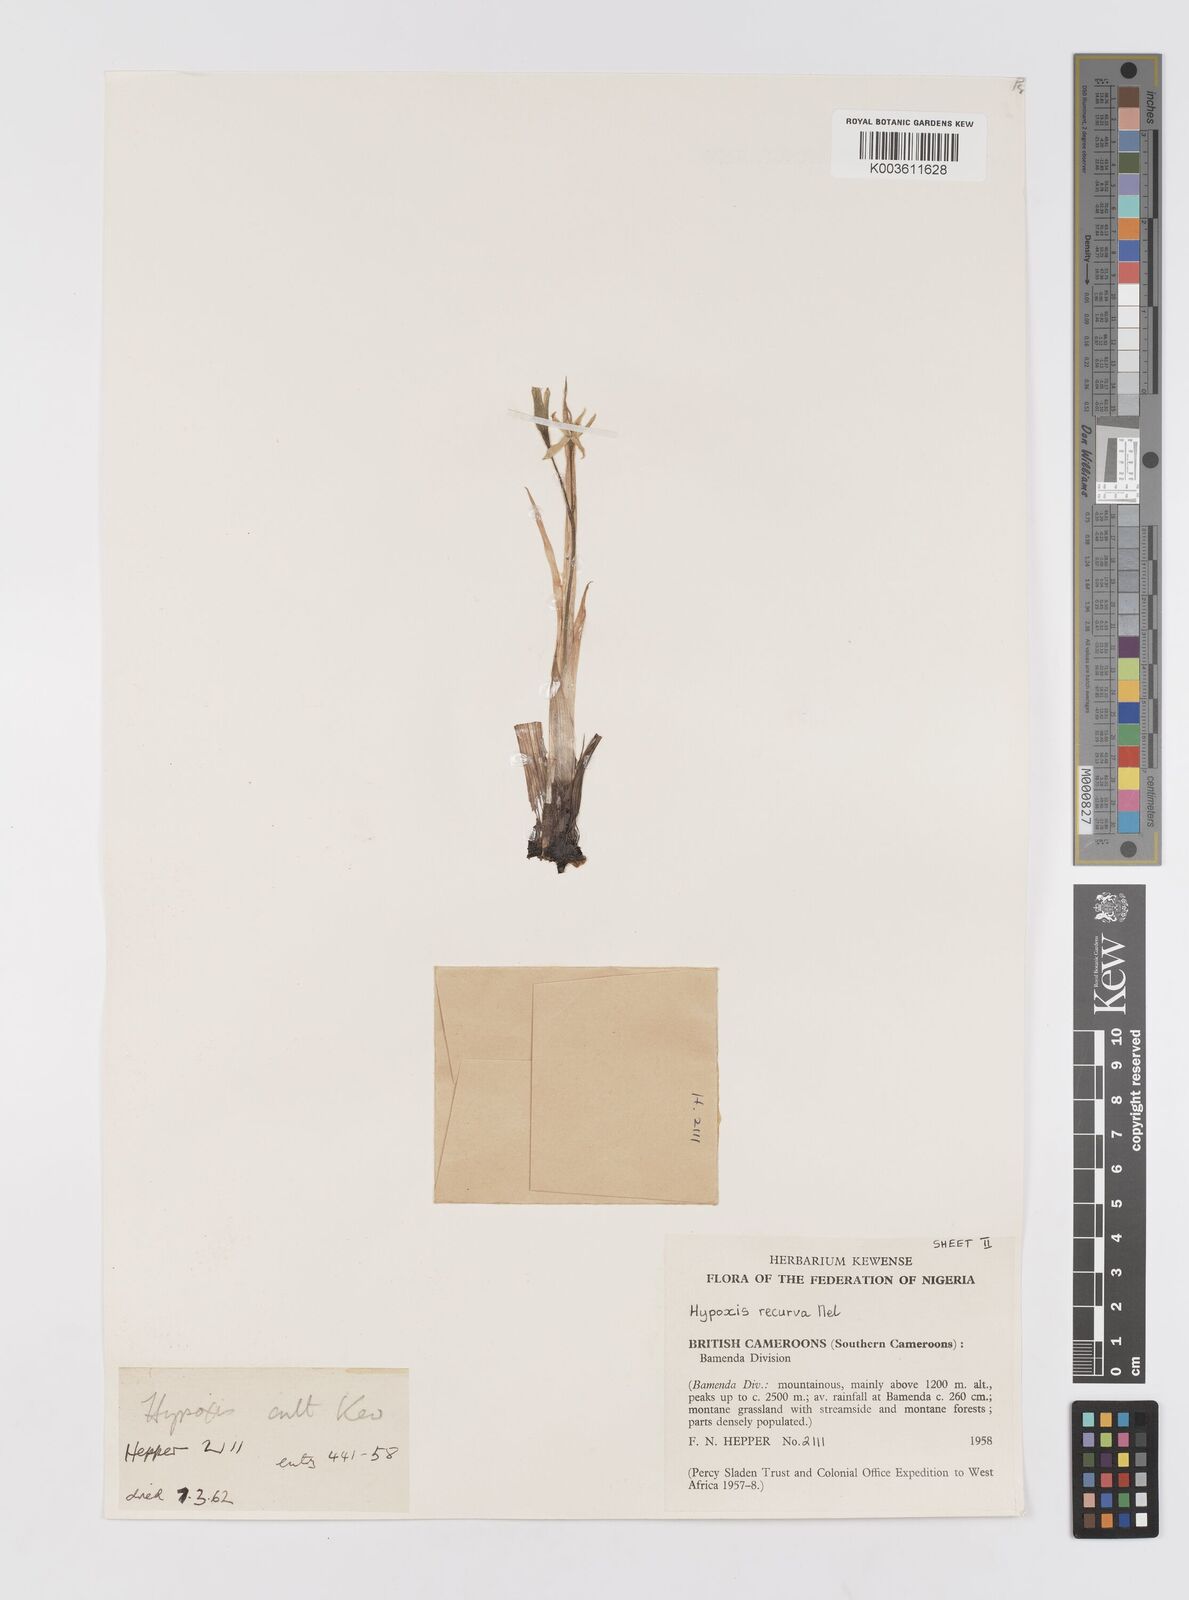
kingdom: Plantae
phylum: Tracheophyta
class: Liliopsida
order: Asparagales
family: Hypoxidaceae
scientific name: Hypoxidaceae
